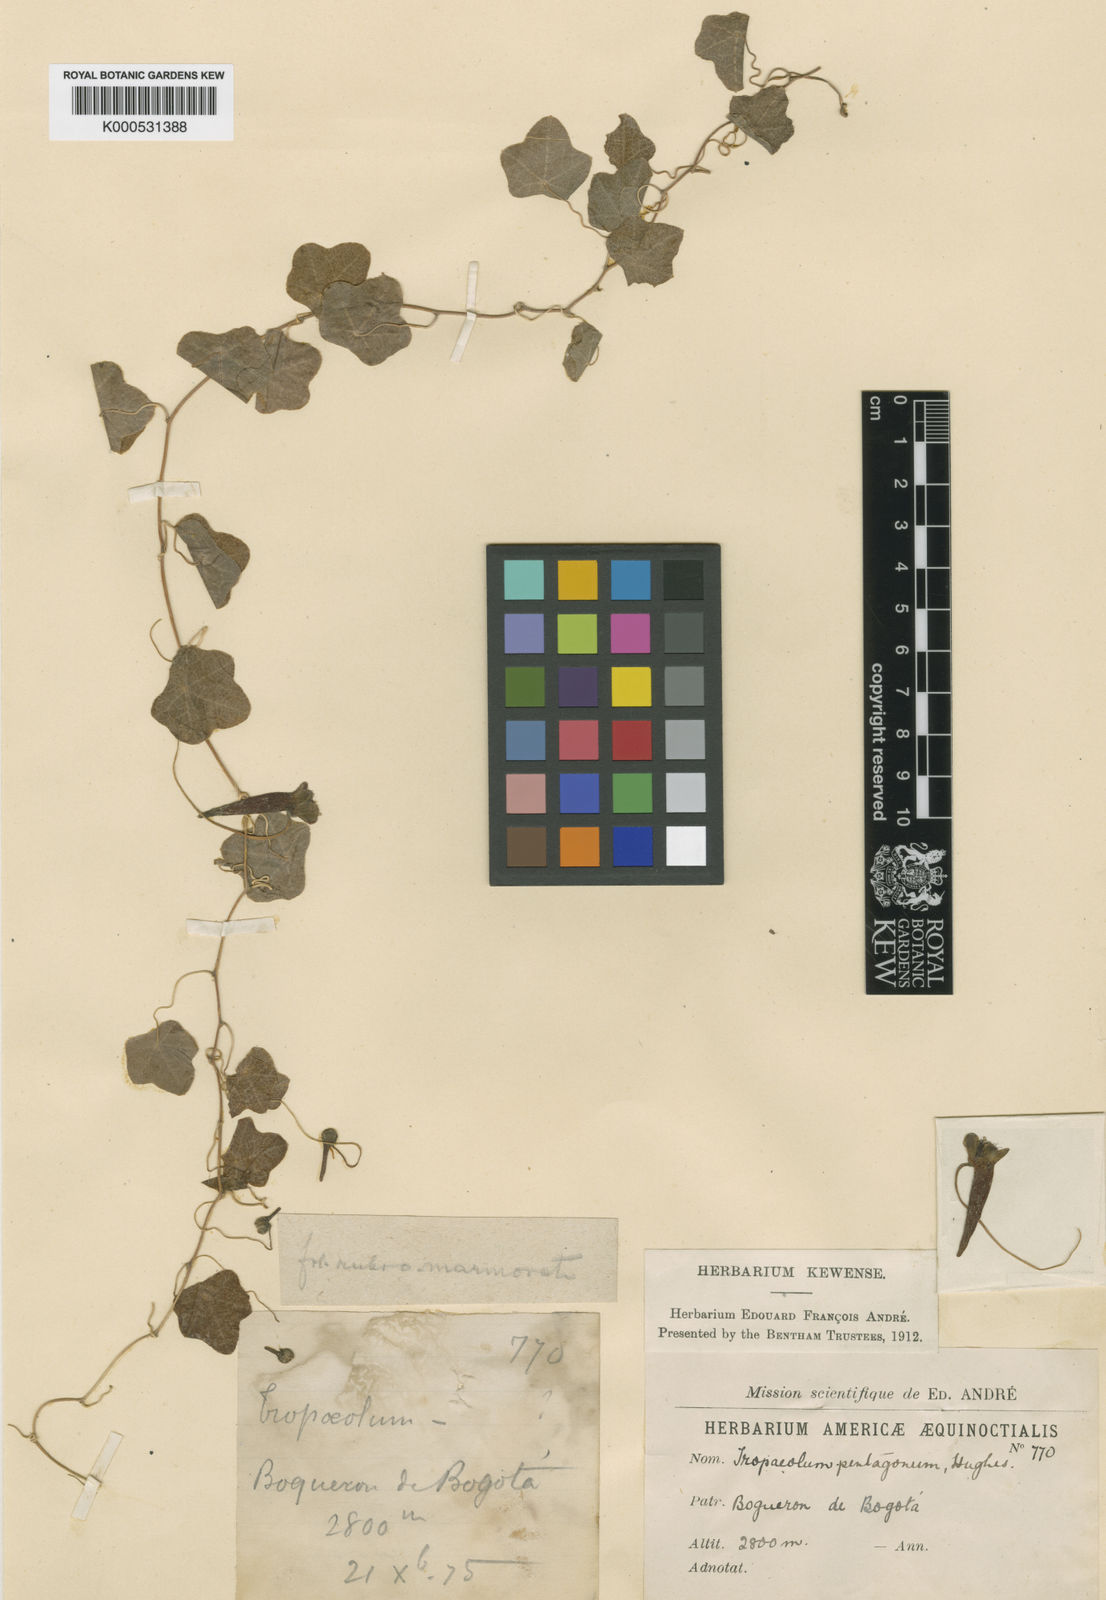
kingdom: Plantae
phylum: Tracheophyta
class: Magnoliopsida
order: Brassicales
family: Tropaeolaceae
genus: Tropaeolum
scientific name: Tropaeolum pentagonum
